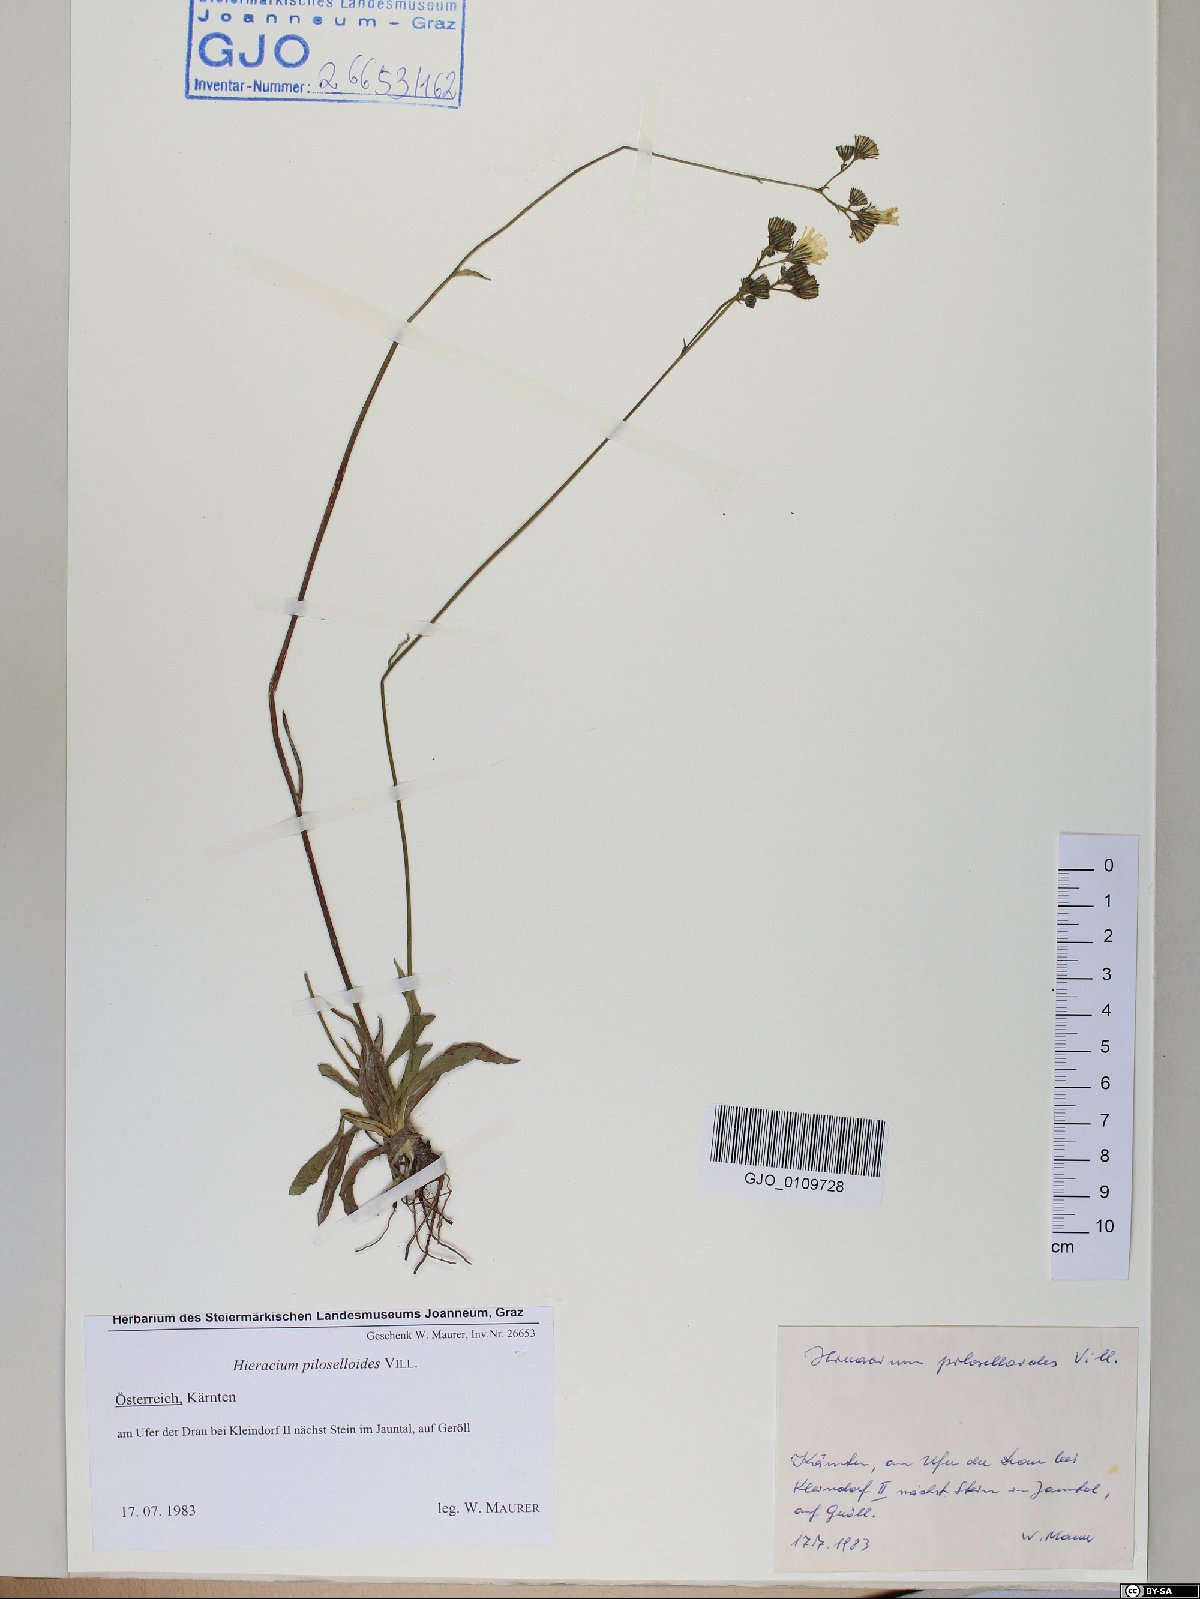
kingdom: Plantae
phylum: Tracheophyta
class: Magnoliopsida
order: Asterales
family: Asteraceae
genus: Pilosella
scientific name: Pilosella piloselloides
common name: Glaucous king-devil
